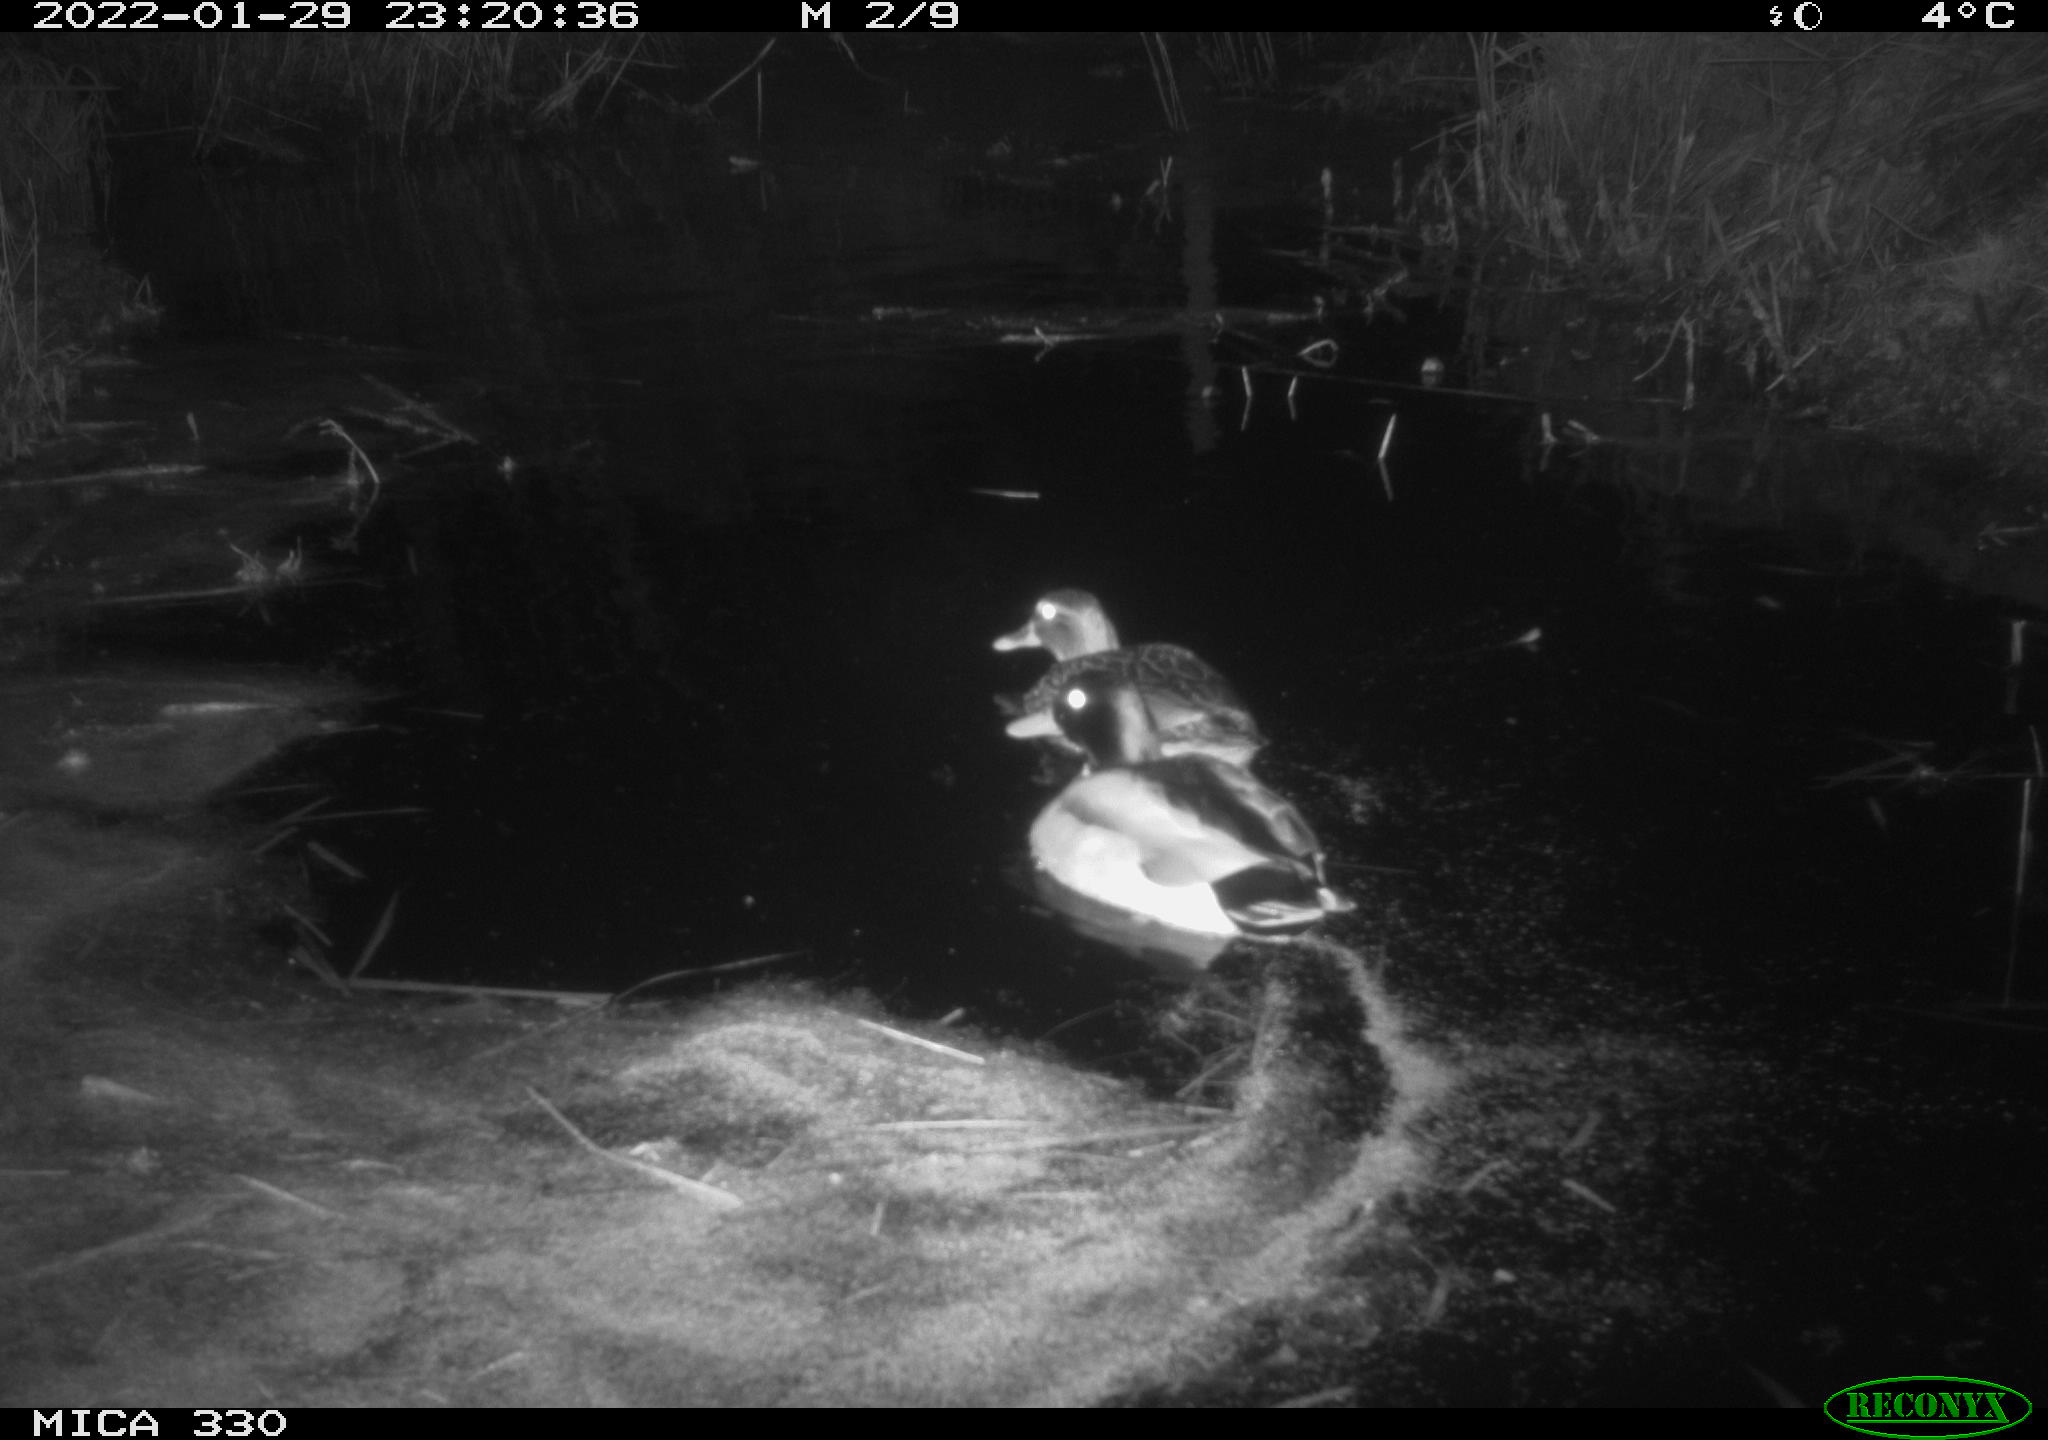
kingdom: Animalia
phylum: Chordata
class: Aves
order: Anseriformes
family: Anatidae
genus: Anas
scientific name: Anas platyrhynchos
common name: Mallard
